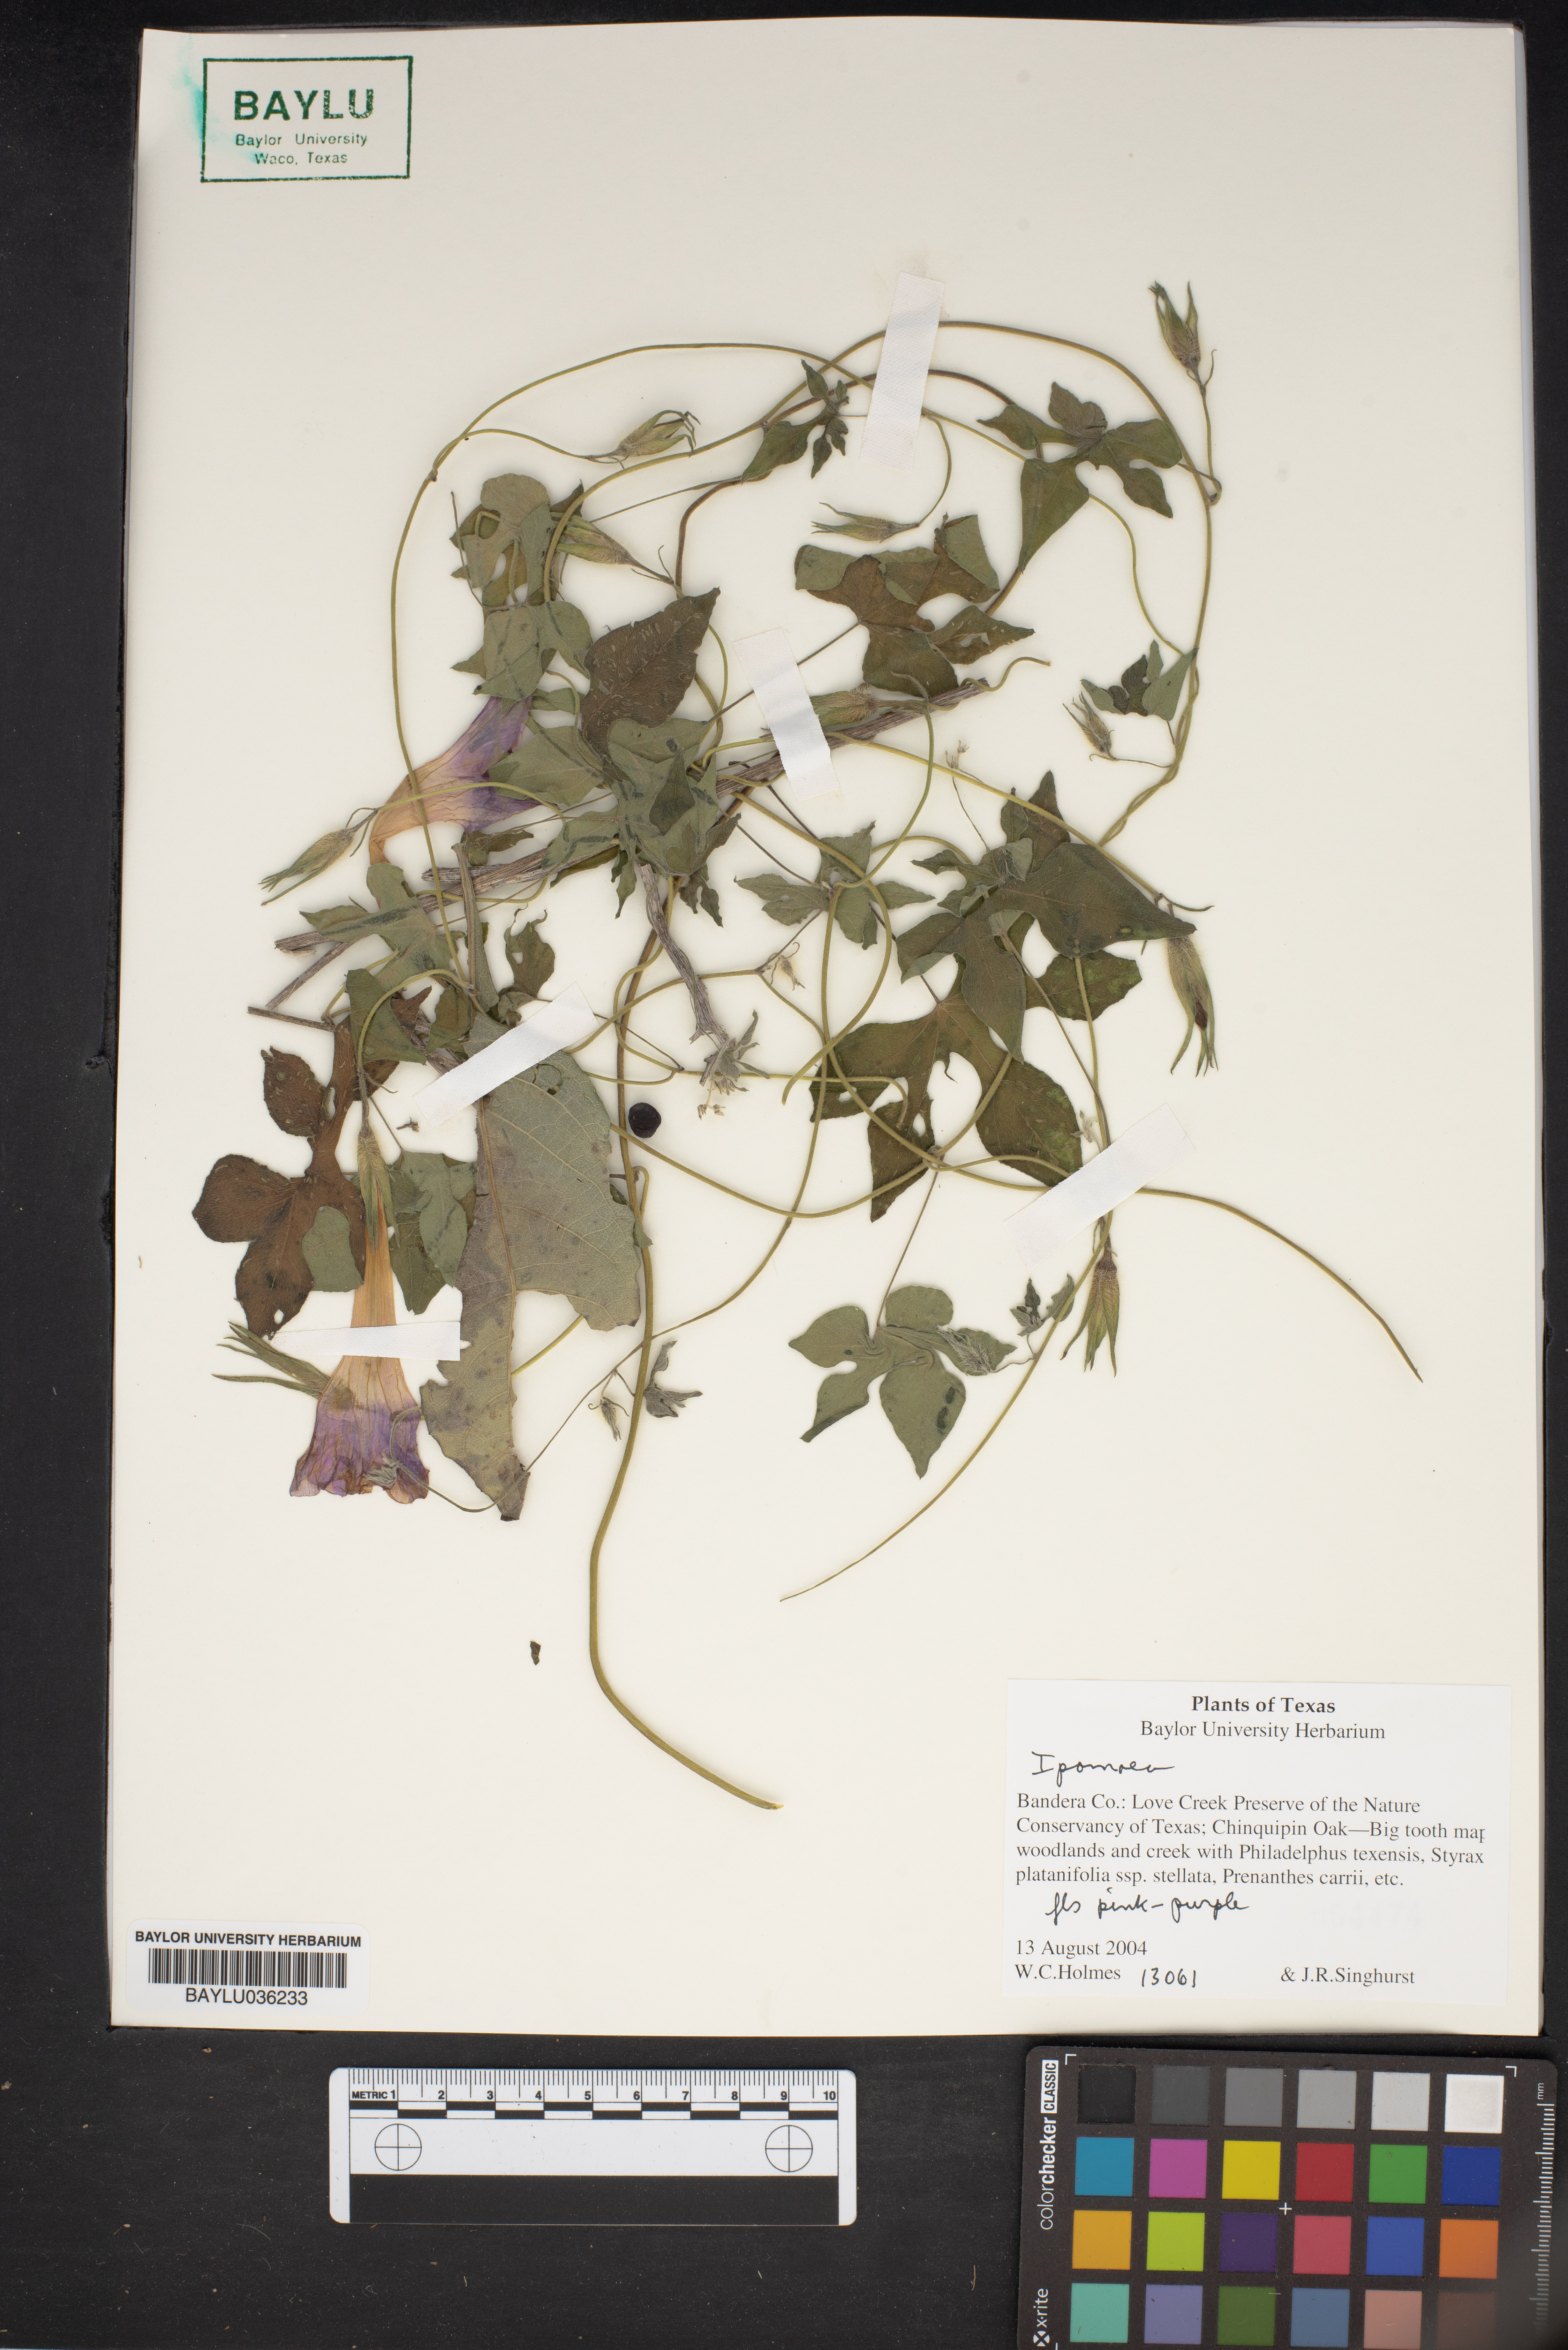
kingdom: Plantae
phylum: Tracheophyta
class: Magnoliopsida
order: Solanales
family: Convolvulaceae
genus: Ipomoea
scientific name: Ipomoea
